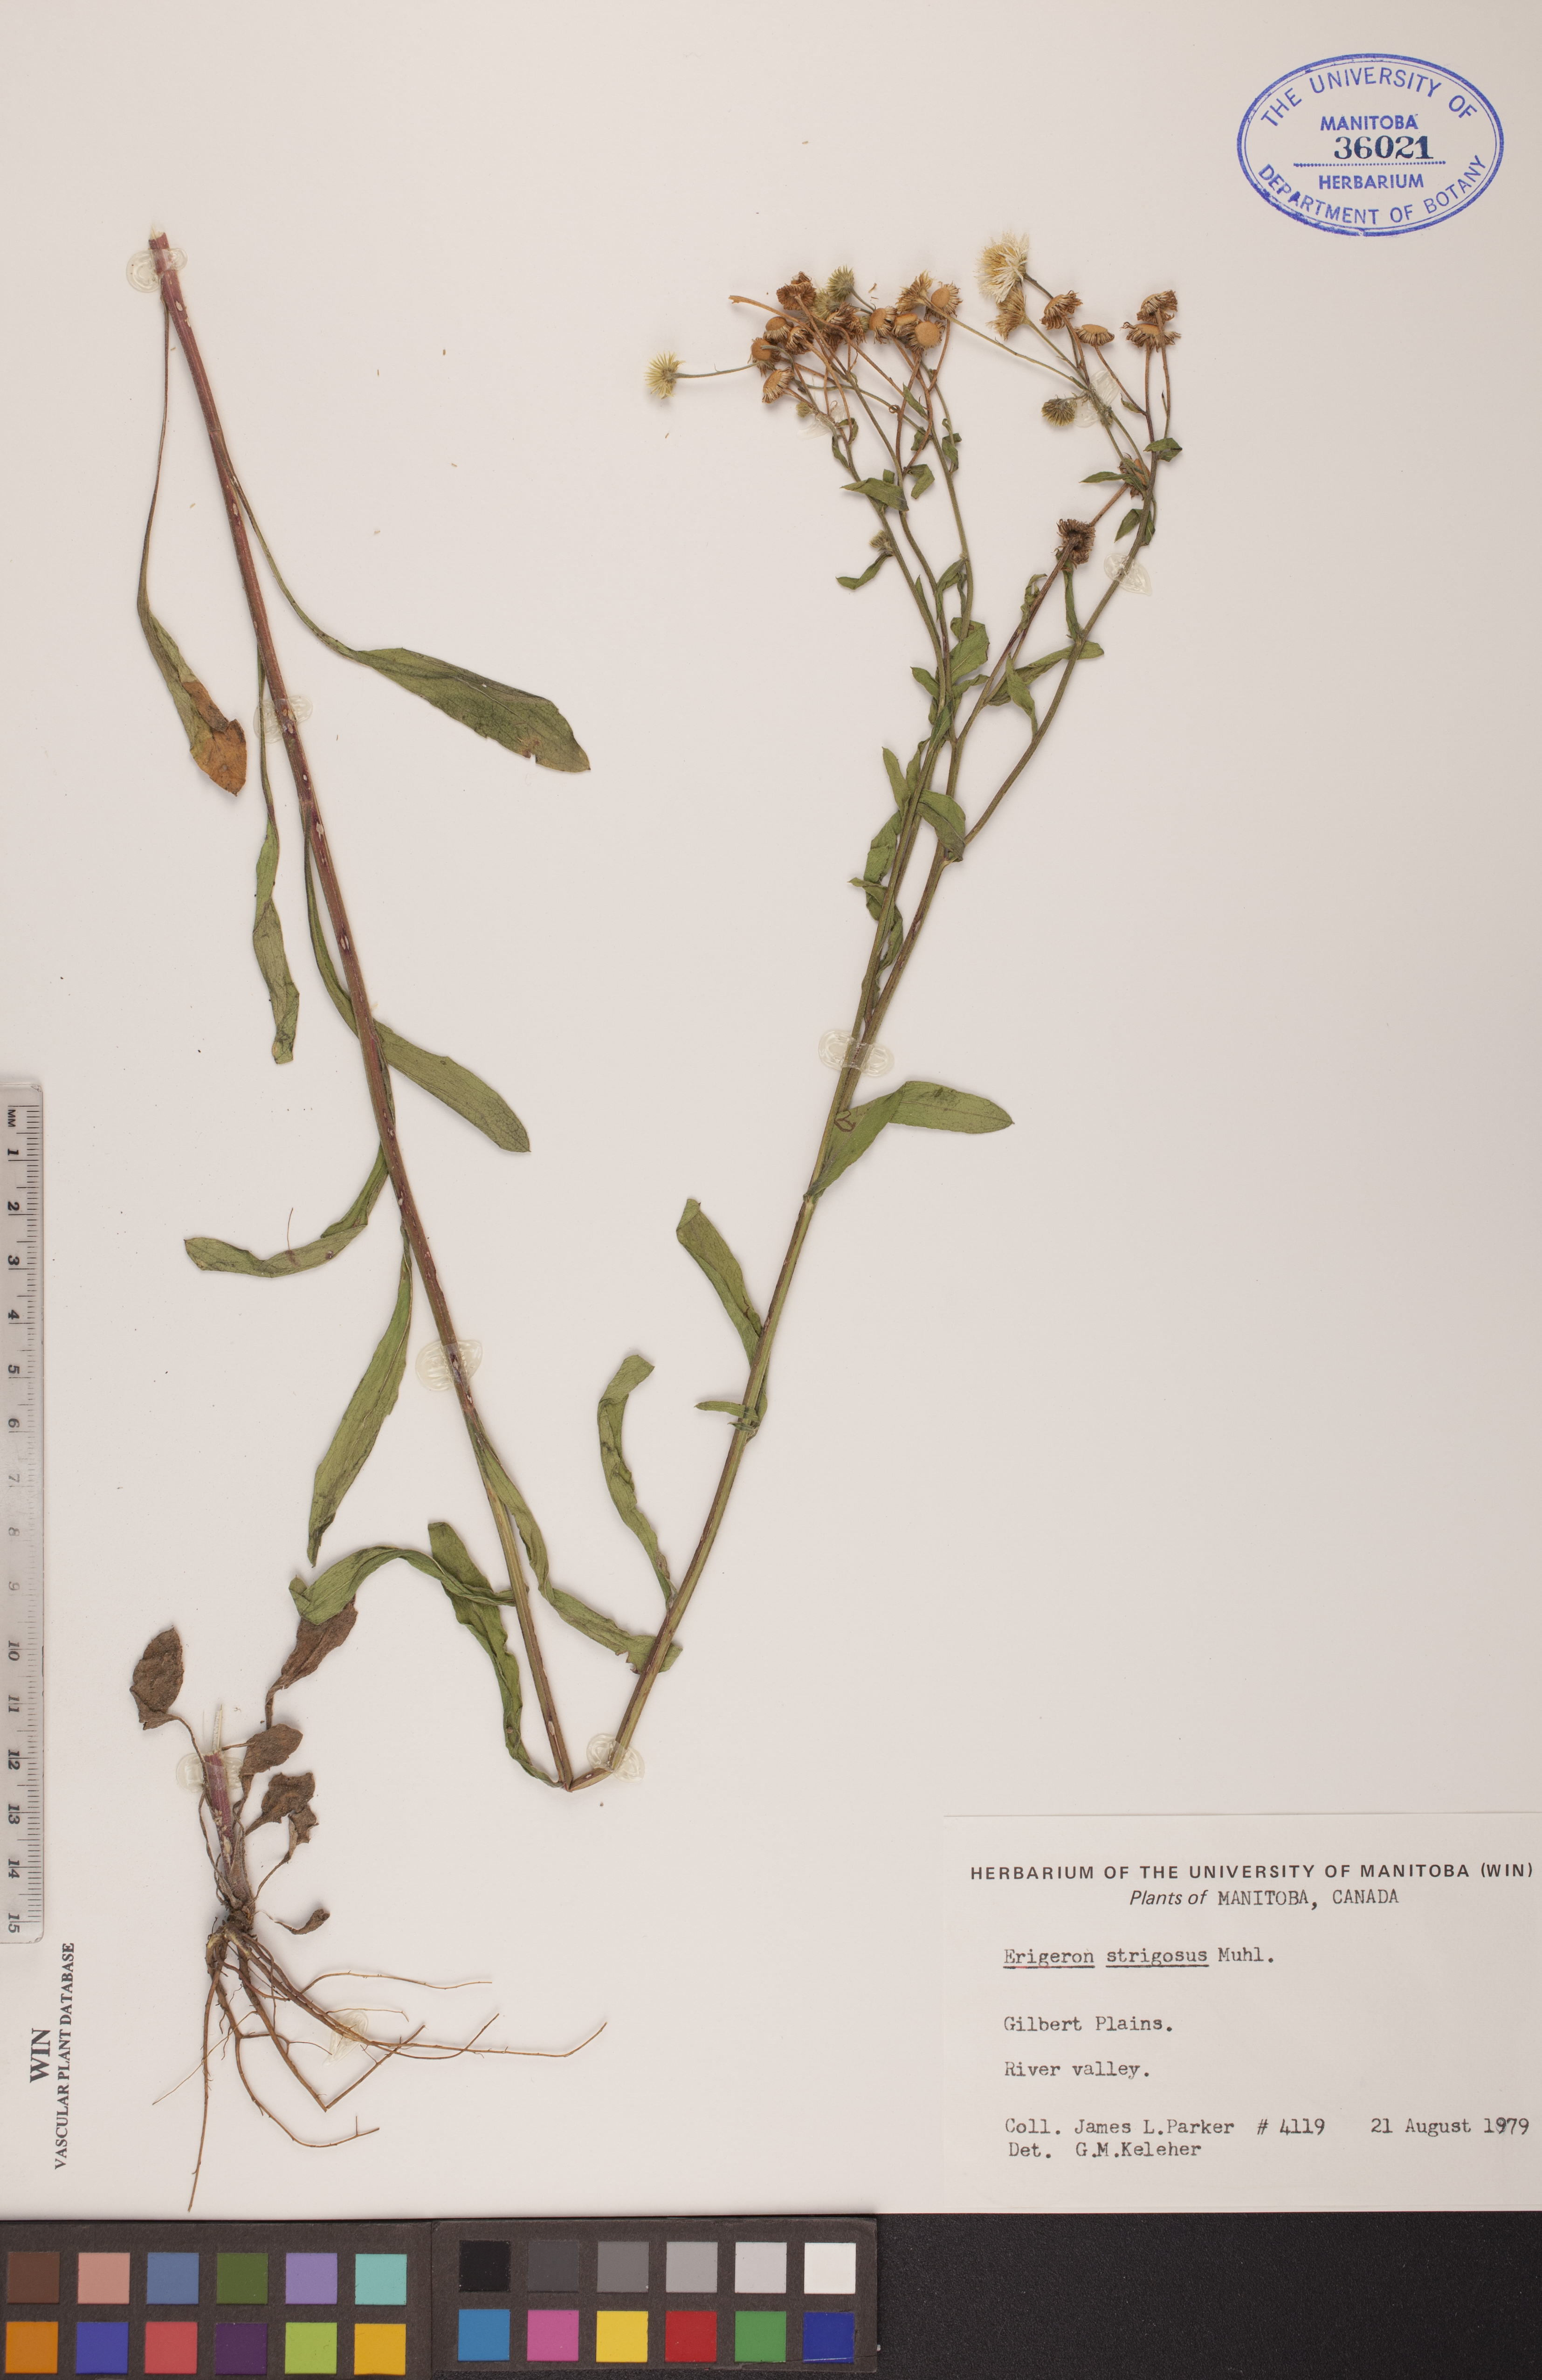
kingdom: Plantae
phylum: Tracheophyta
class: Magnoliopsida
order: Asterales
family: Asteraceae
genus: Erigeron
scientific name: Erigeron strigosus
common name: Common eastern fleabane
